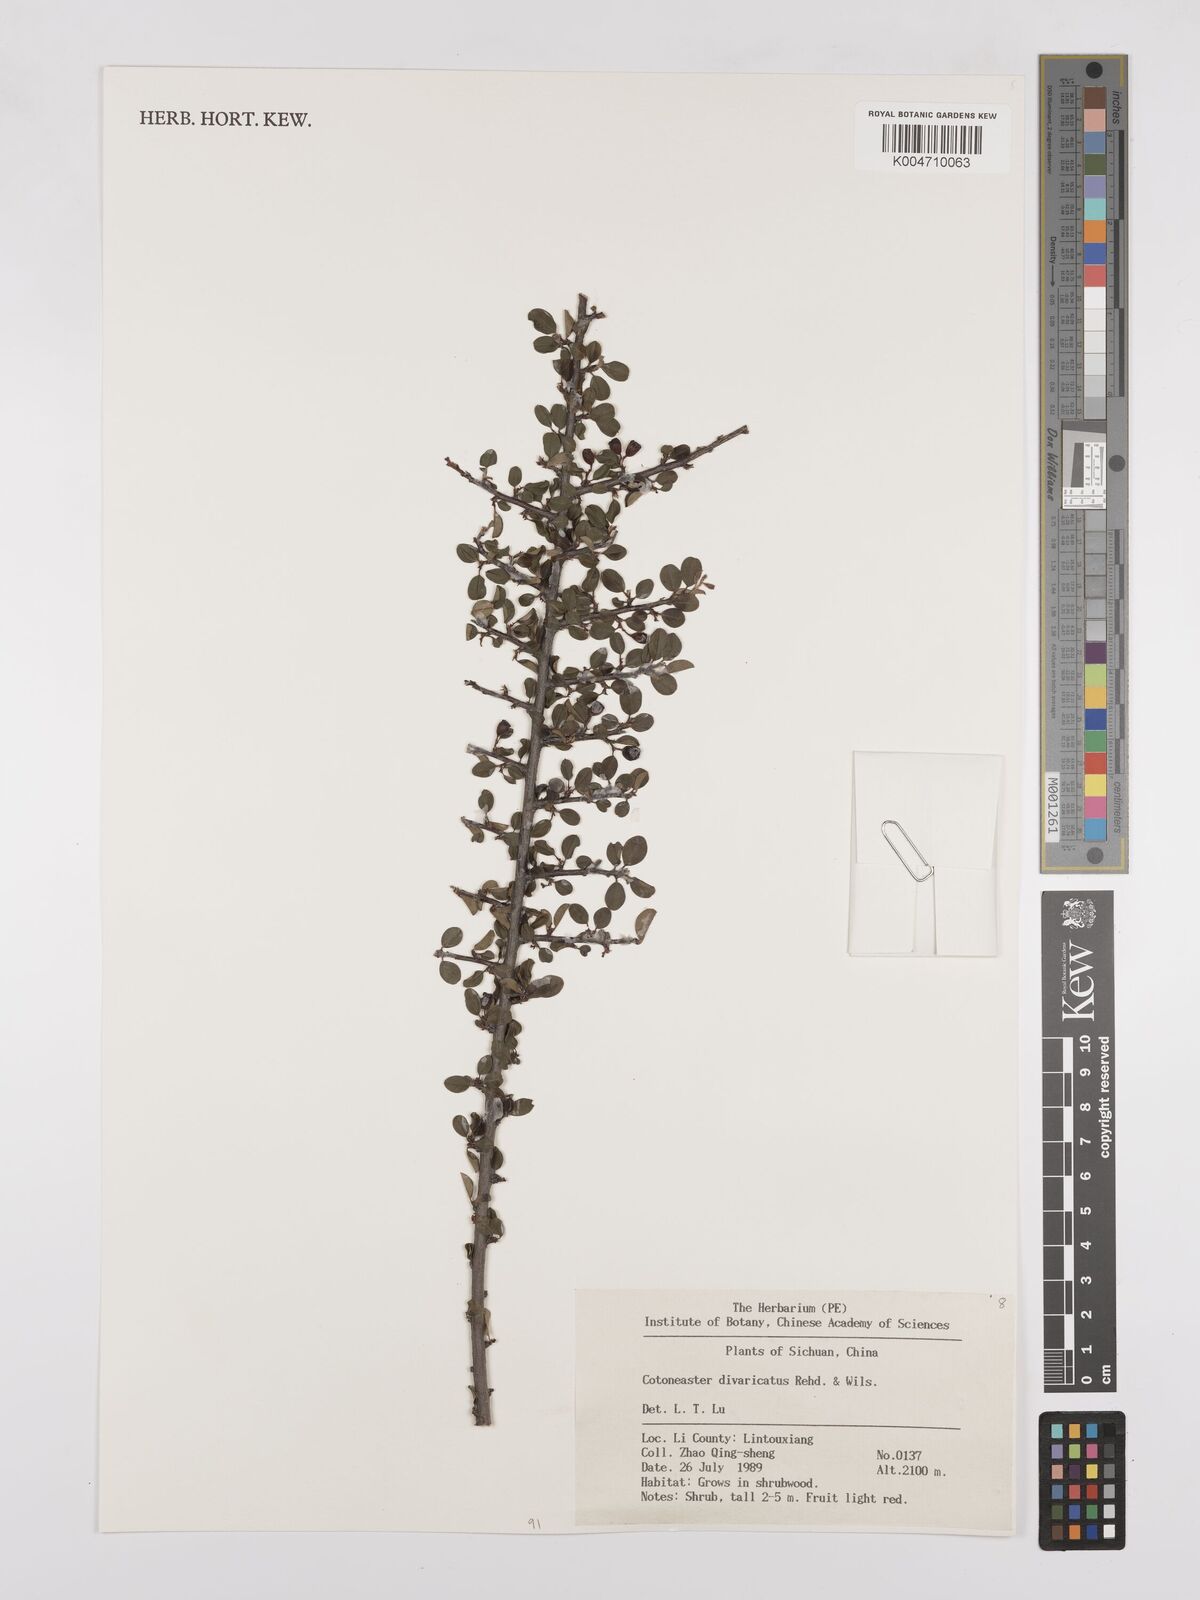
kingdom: Plantae
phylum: Tracheophyta
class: Magnoliopsida
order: Rosales
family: Rosaceae
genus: Cotoneaster
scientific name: Cotoneaster divaricatus
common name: Spreading cotoneaster
